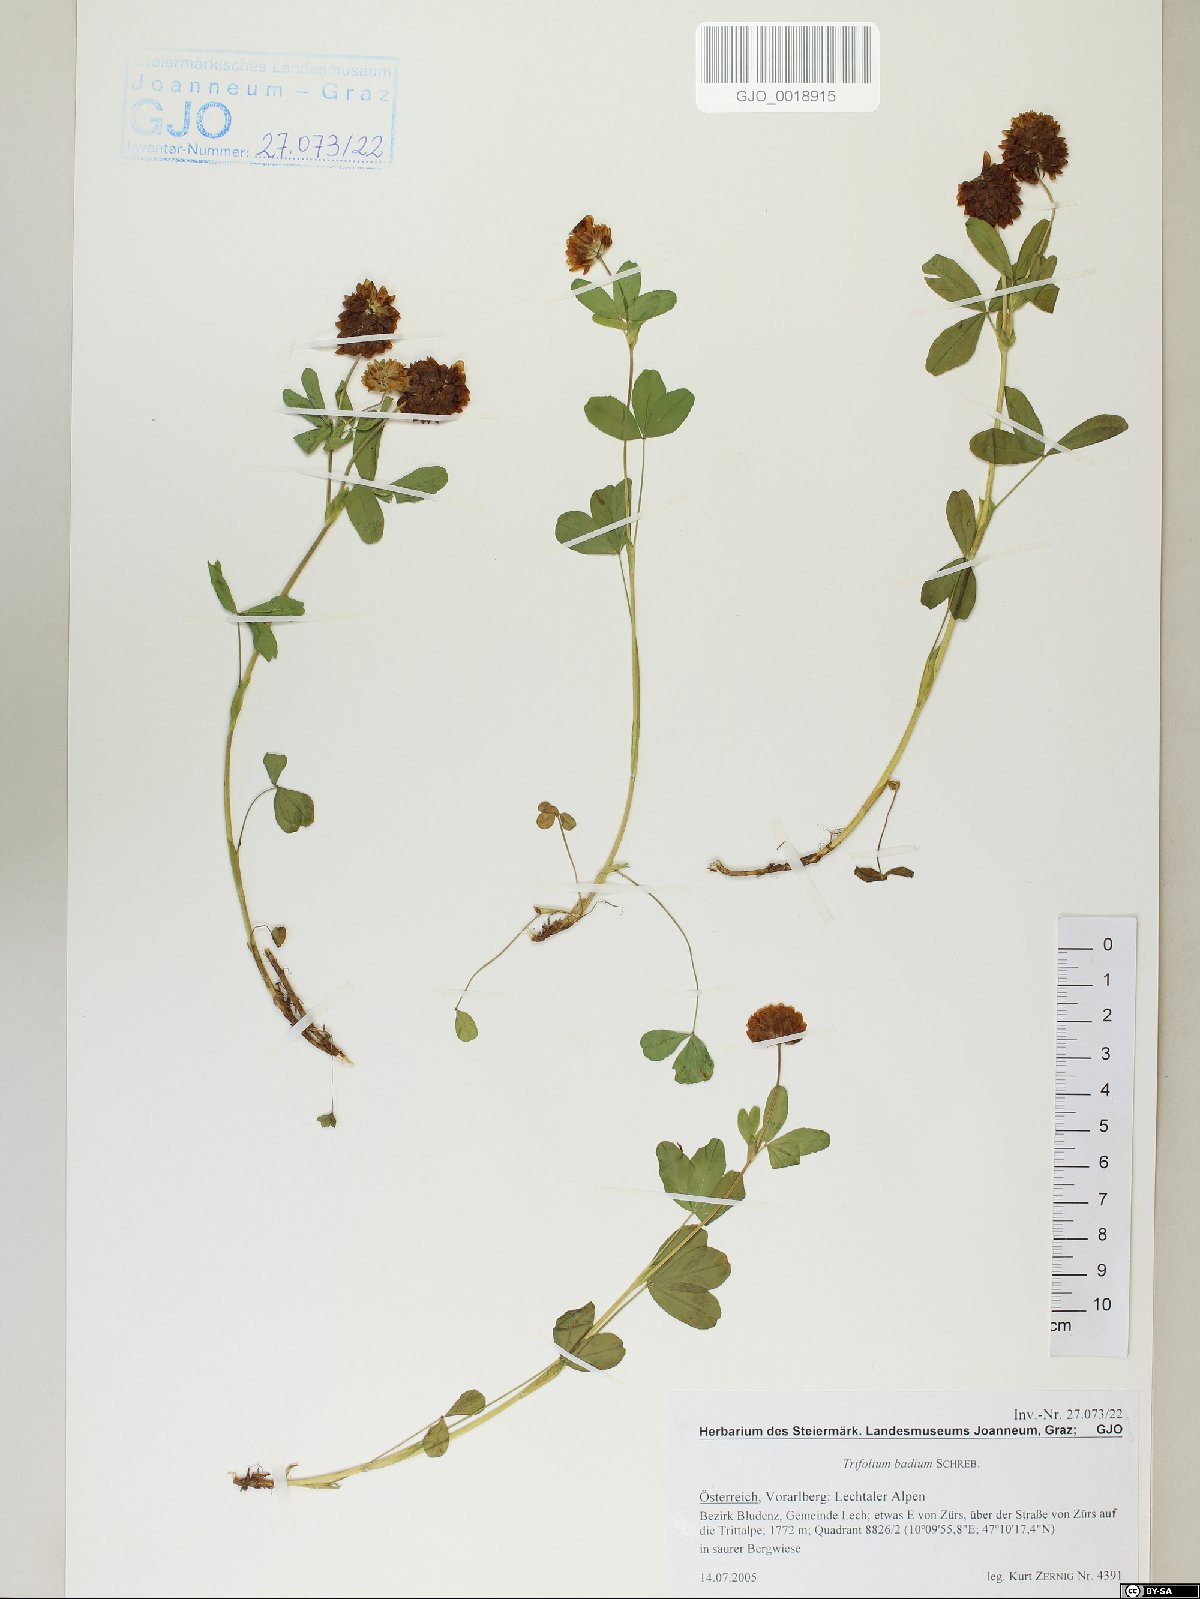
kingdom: Plantae
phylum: Tracheophyta
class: Magnoliopsida
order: Fabales
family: Fabaceae
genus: Trifolium
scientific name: Trifolium badium
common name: Brown clover
